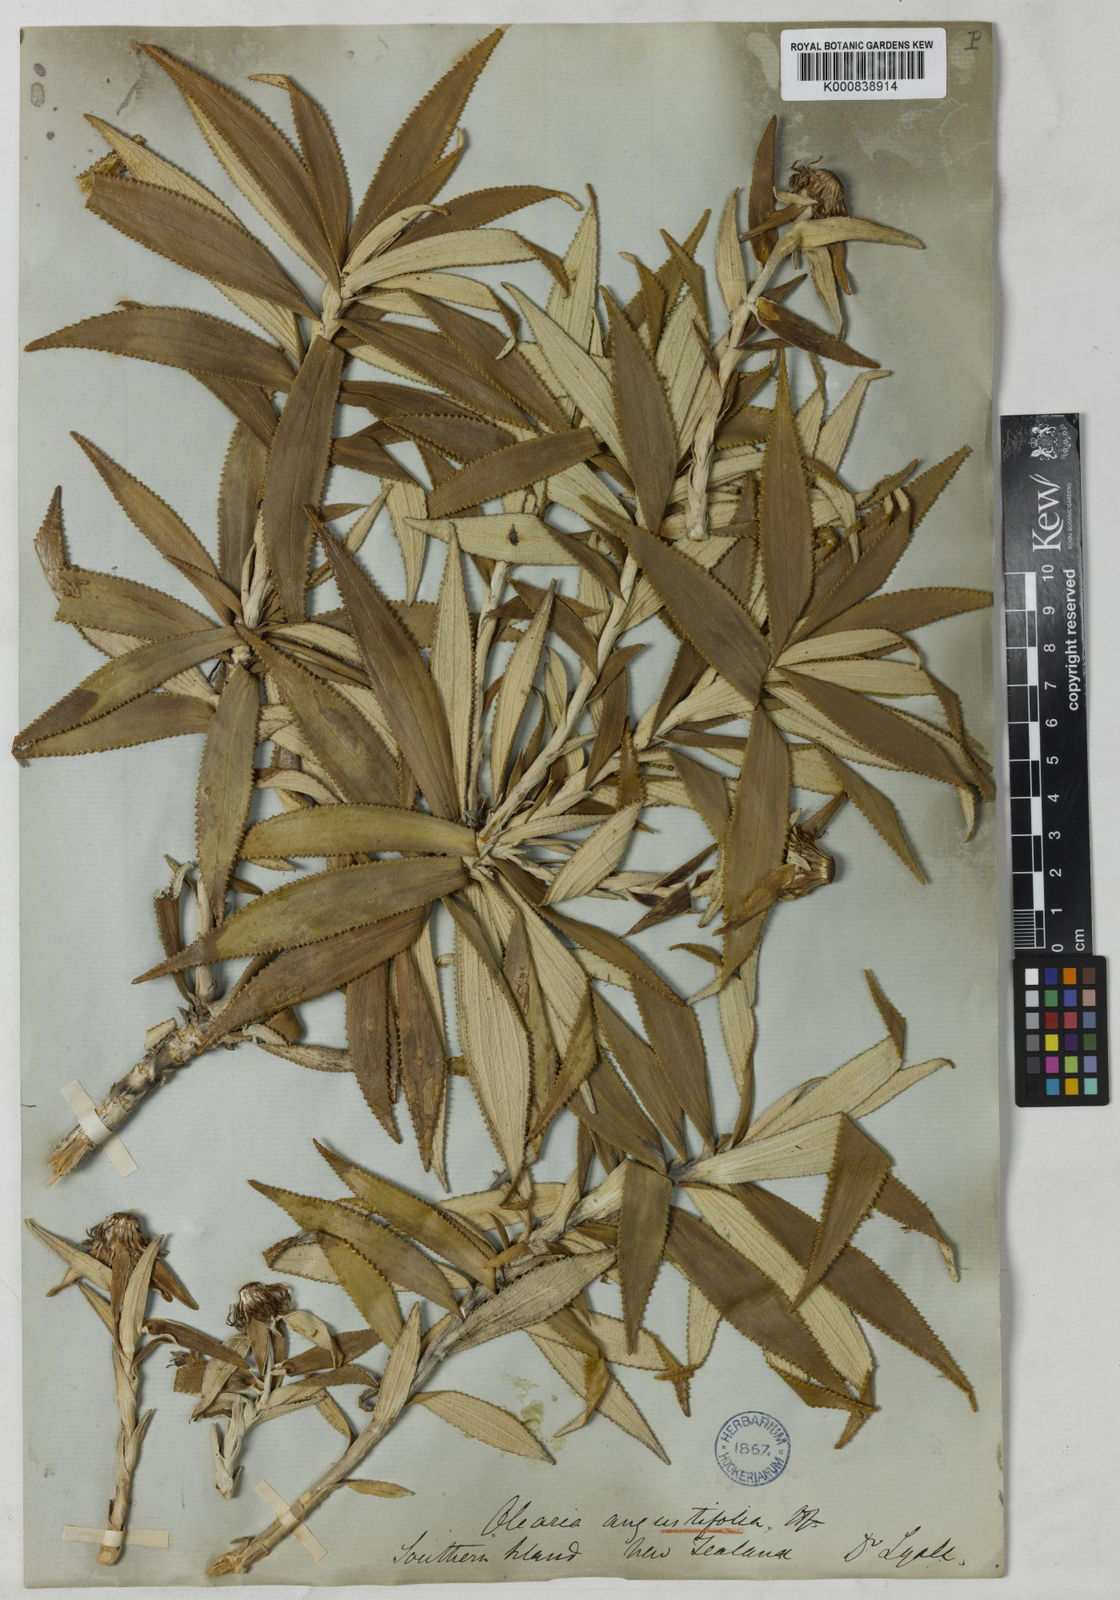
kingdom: Plantae
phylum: Tracheophyta
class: Magnoliopsida
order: Asterales
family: Asteraceae
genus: Macrolearia
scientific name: Macrolearia angustifolia
